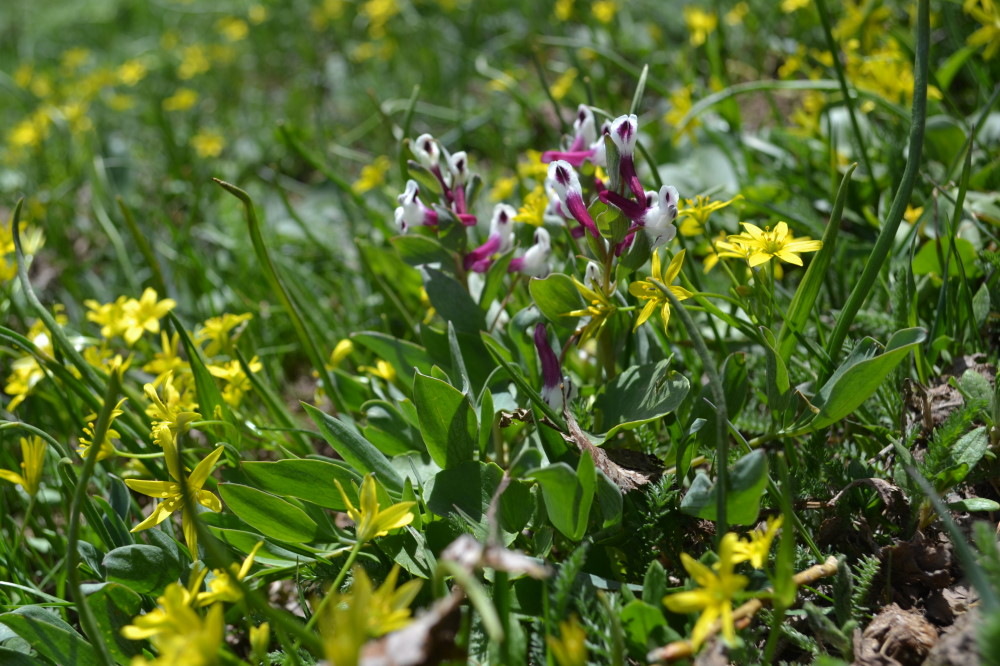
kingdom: Plantae
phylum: Tracheophyta
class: Liliopsida
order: Liliales
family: Liliaceae
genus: Gagea
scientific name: Gagea glacialis
